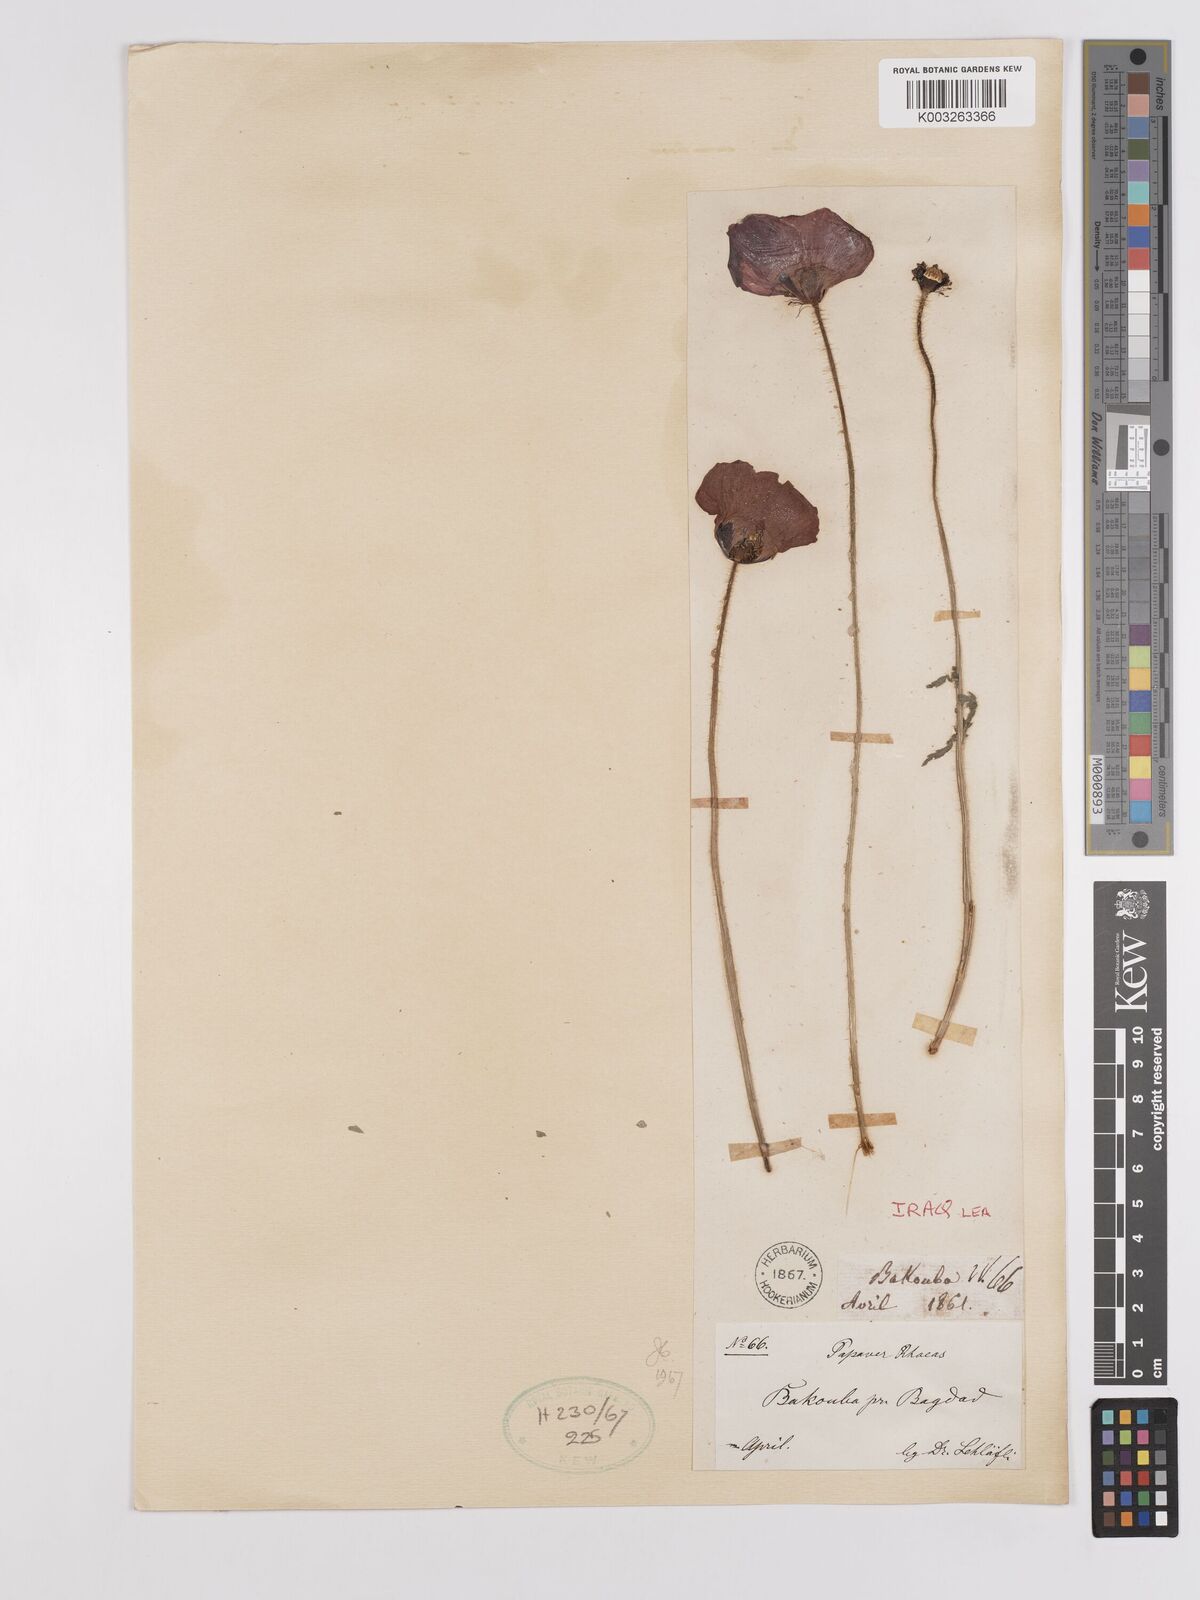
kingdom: Plantae
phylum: Tracheophyta
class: Magnoliopsida
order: Ranunculales
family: Papaveraceae
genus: Papaver
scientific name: Papaver rhoeas
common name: Corn poppy
